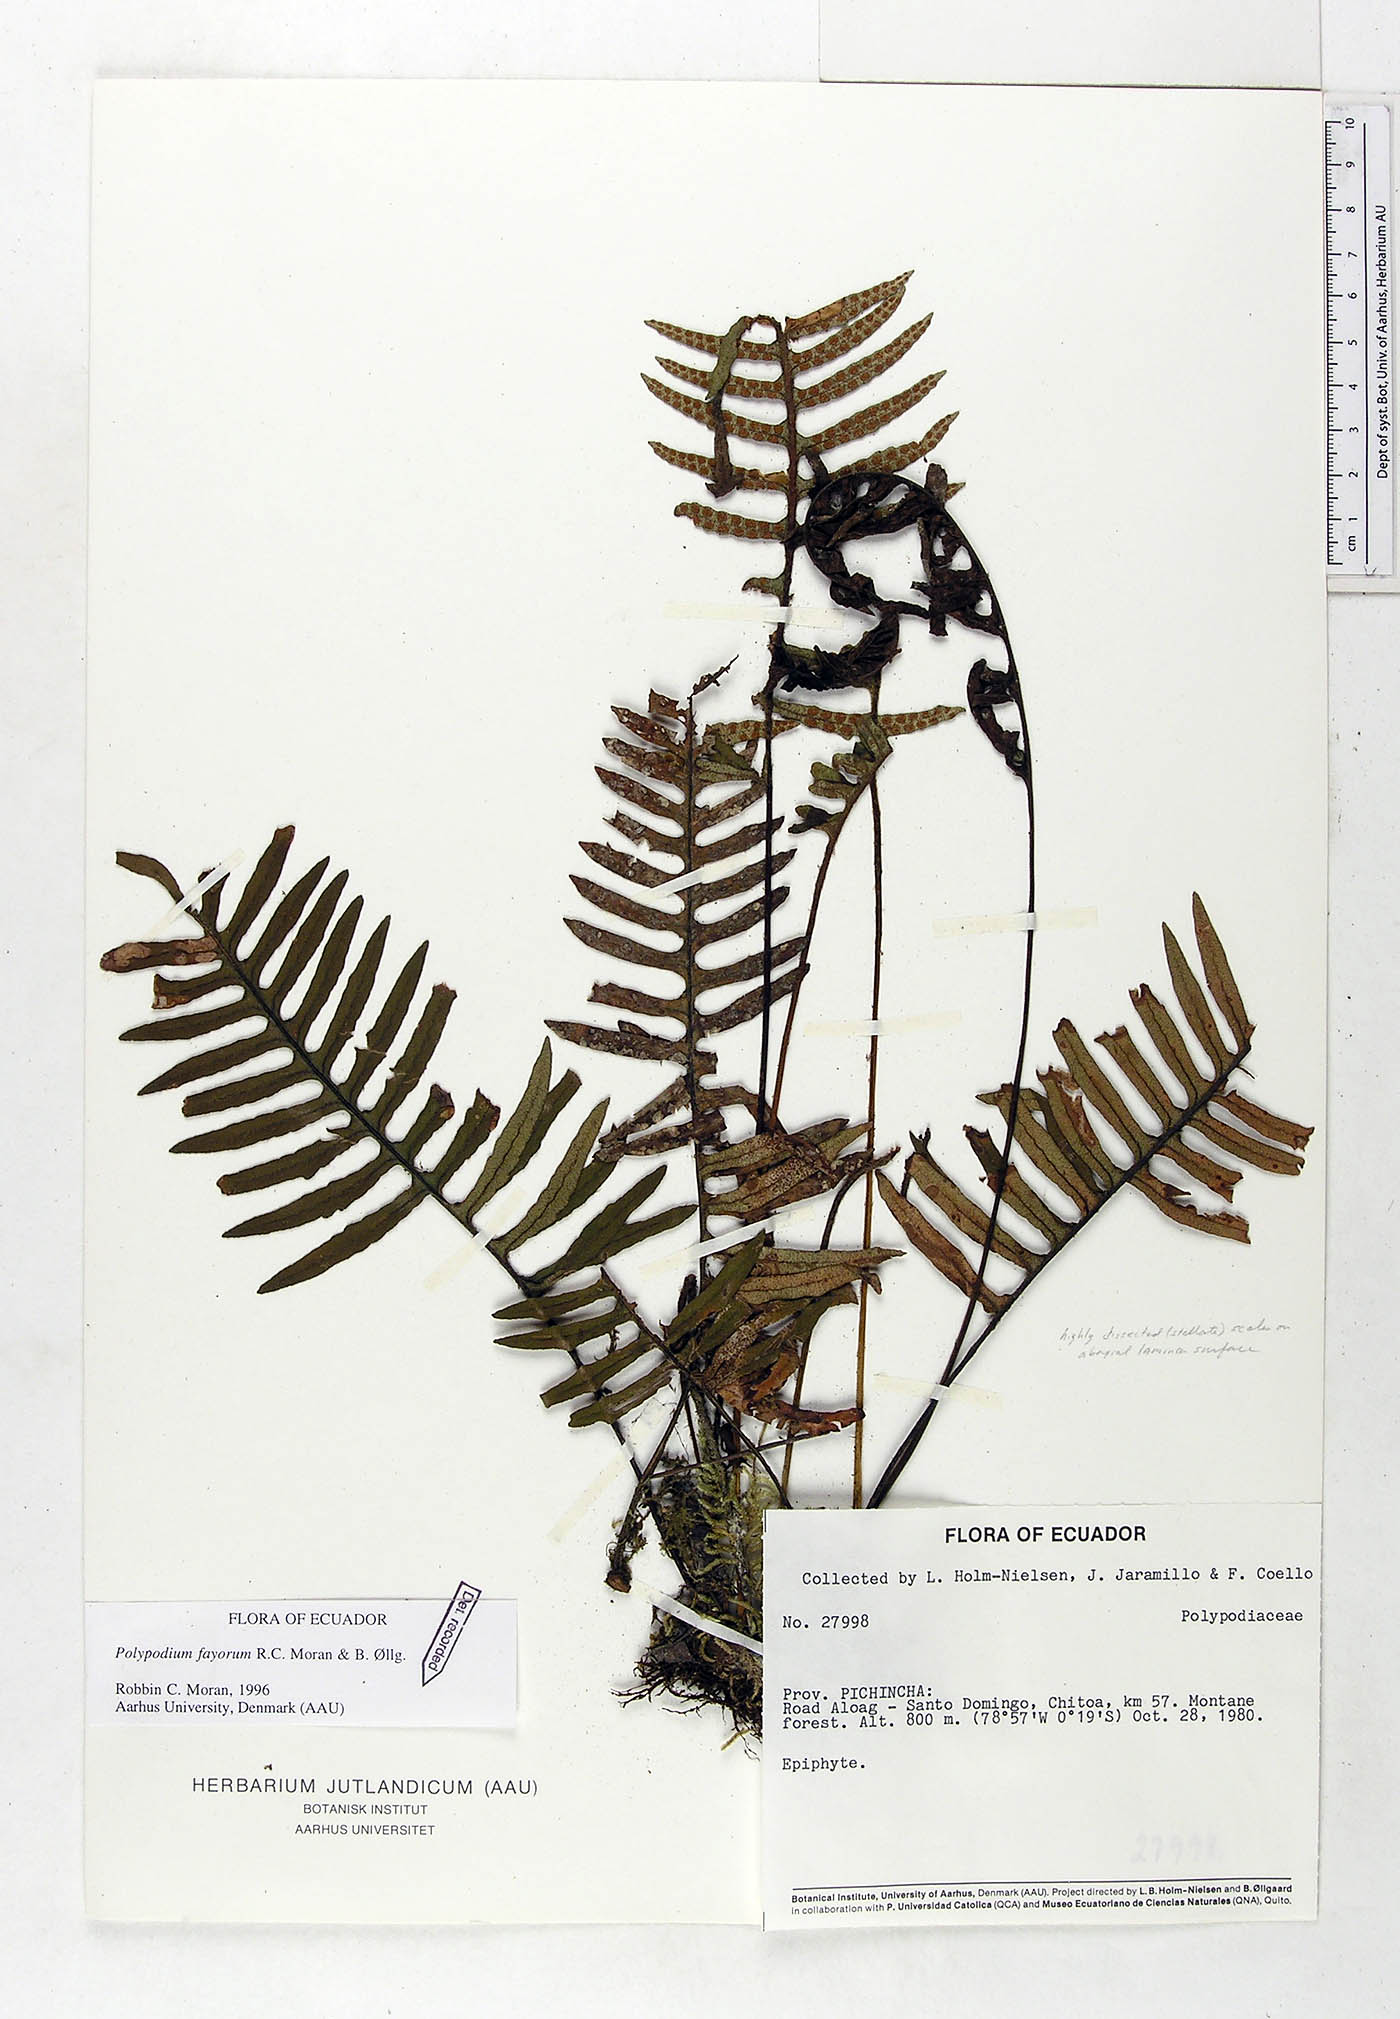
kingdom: Plantae
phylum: Tracheophyta
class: Polypodiopsida
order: Polypodiales
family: Polypodiaceae
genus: Pleopeltis
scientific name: Pleopeltis fayorum
